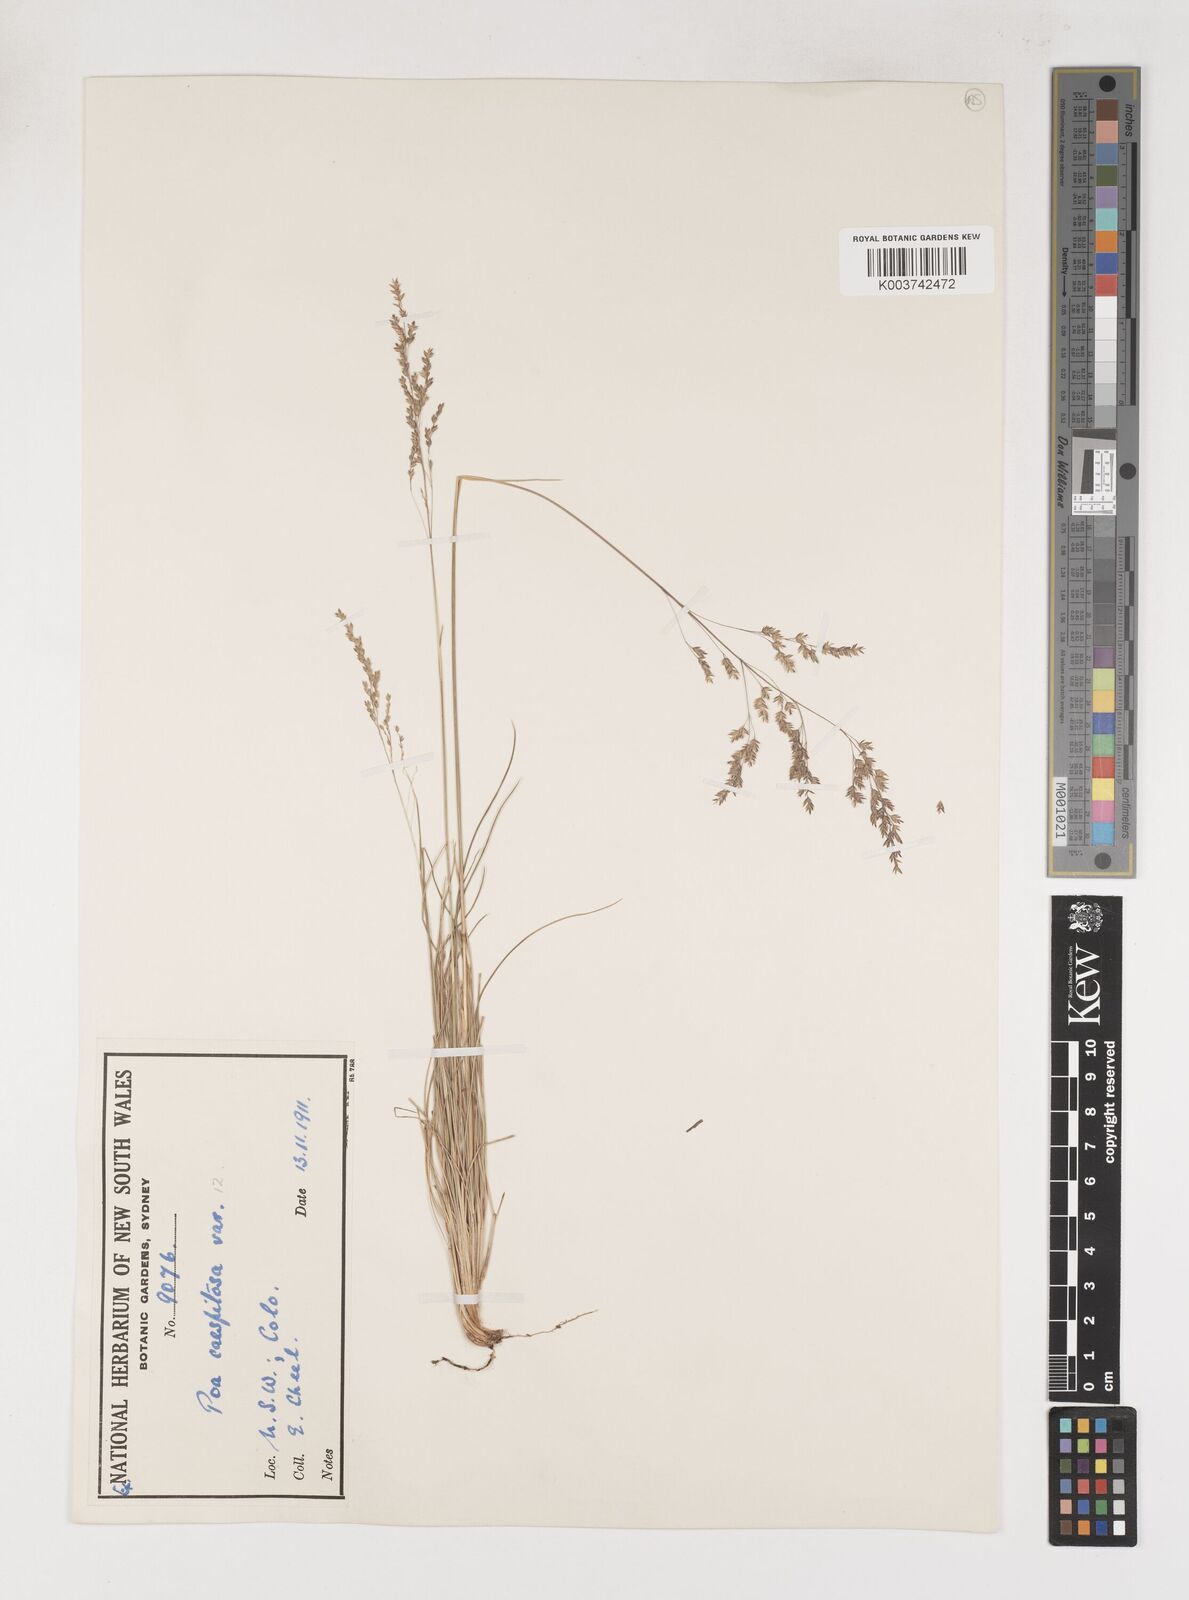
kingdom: Plantae
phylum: Tracheophyta
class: Liliopsida
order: Poales
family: Poaceae
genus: Poa
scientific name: Poa
